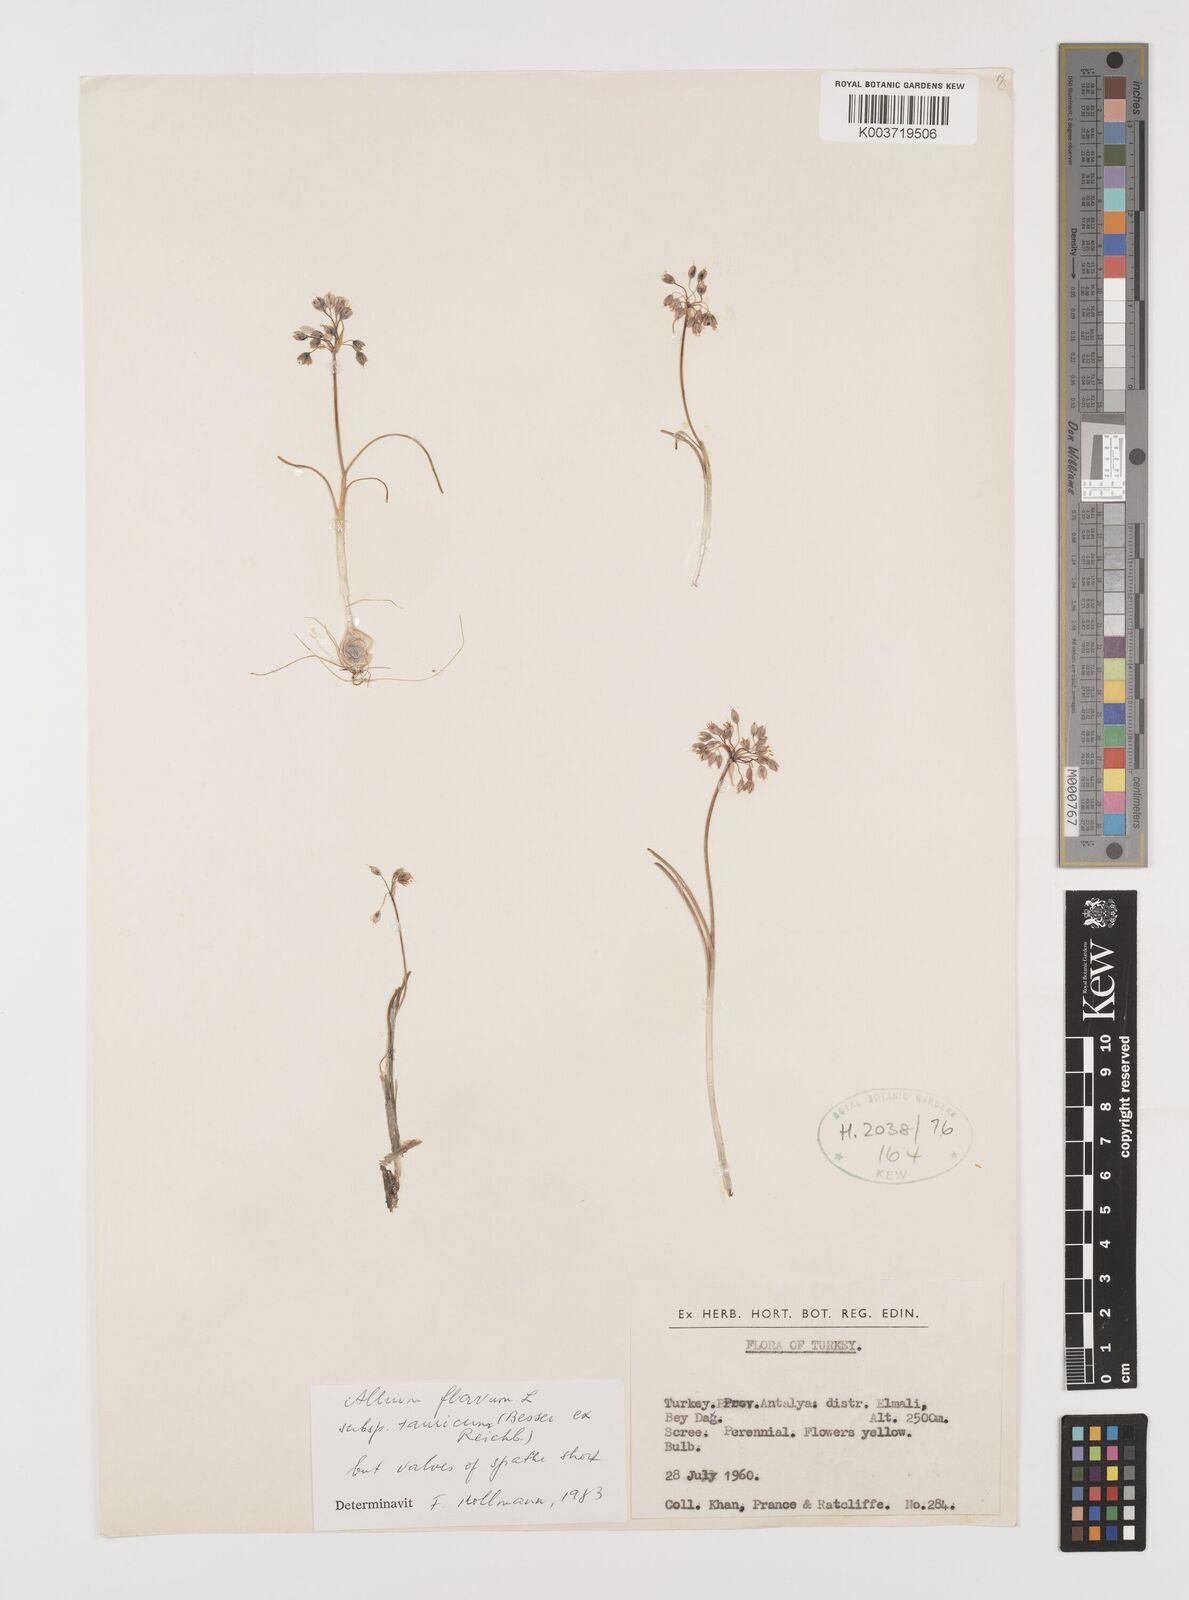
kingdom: Plantae
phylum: Tracheophyta
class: Liliopsida
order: Asparagales
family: Amaryllidaceae
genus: Allium
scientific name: Allium flavum
